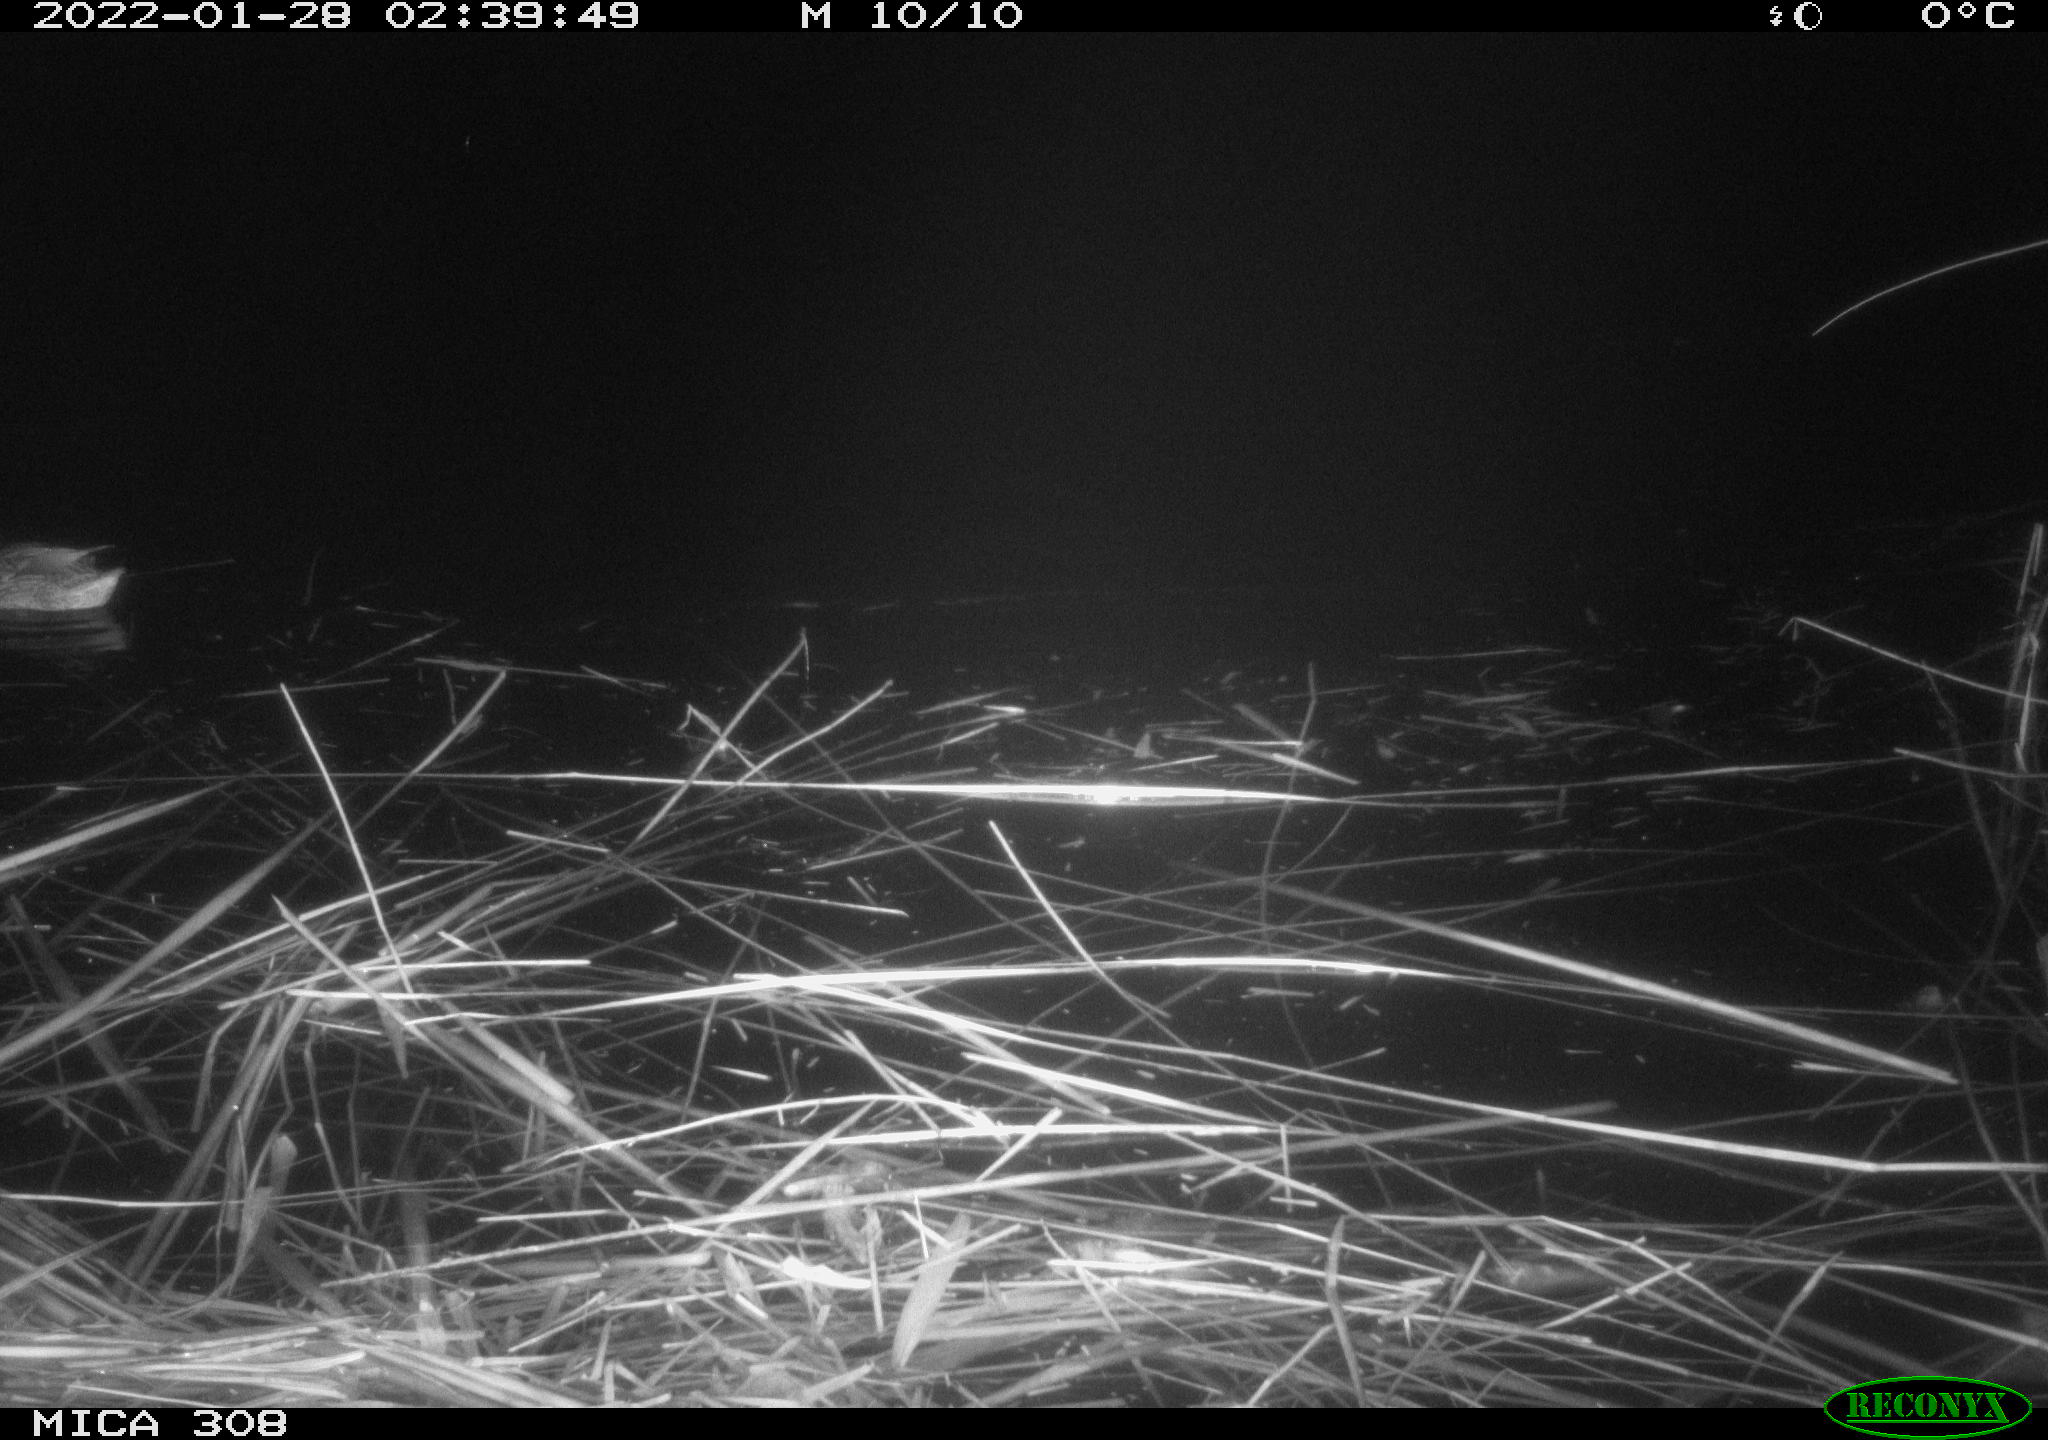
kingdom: Animalia
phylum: Chordata
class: Aves
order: Anseriformes
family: Anatidae
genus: Anas
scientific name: Anas platyrhynchos
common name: Mallard
